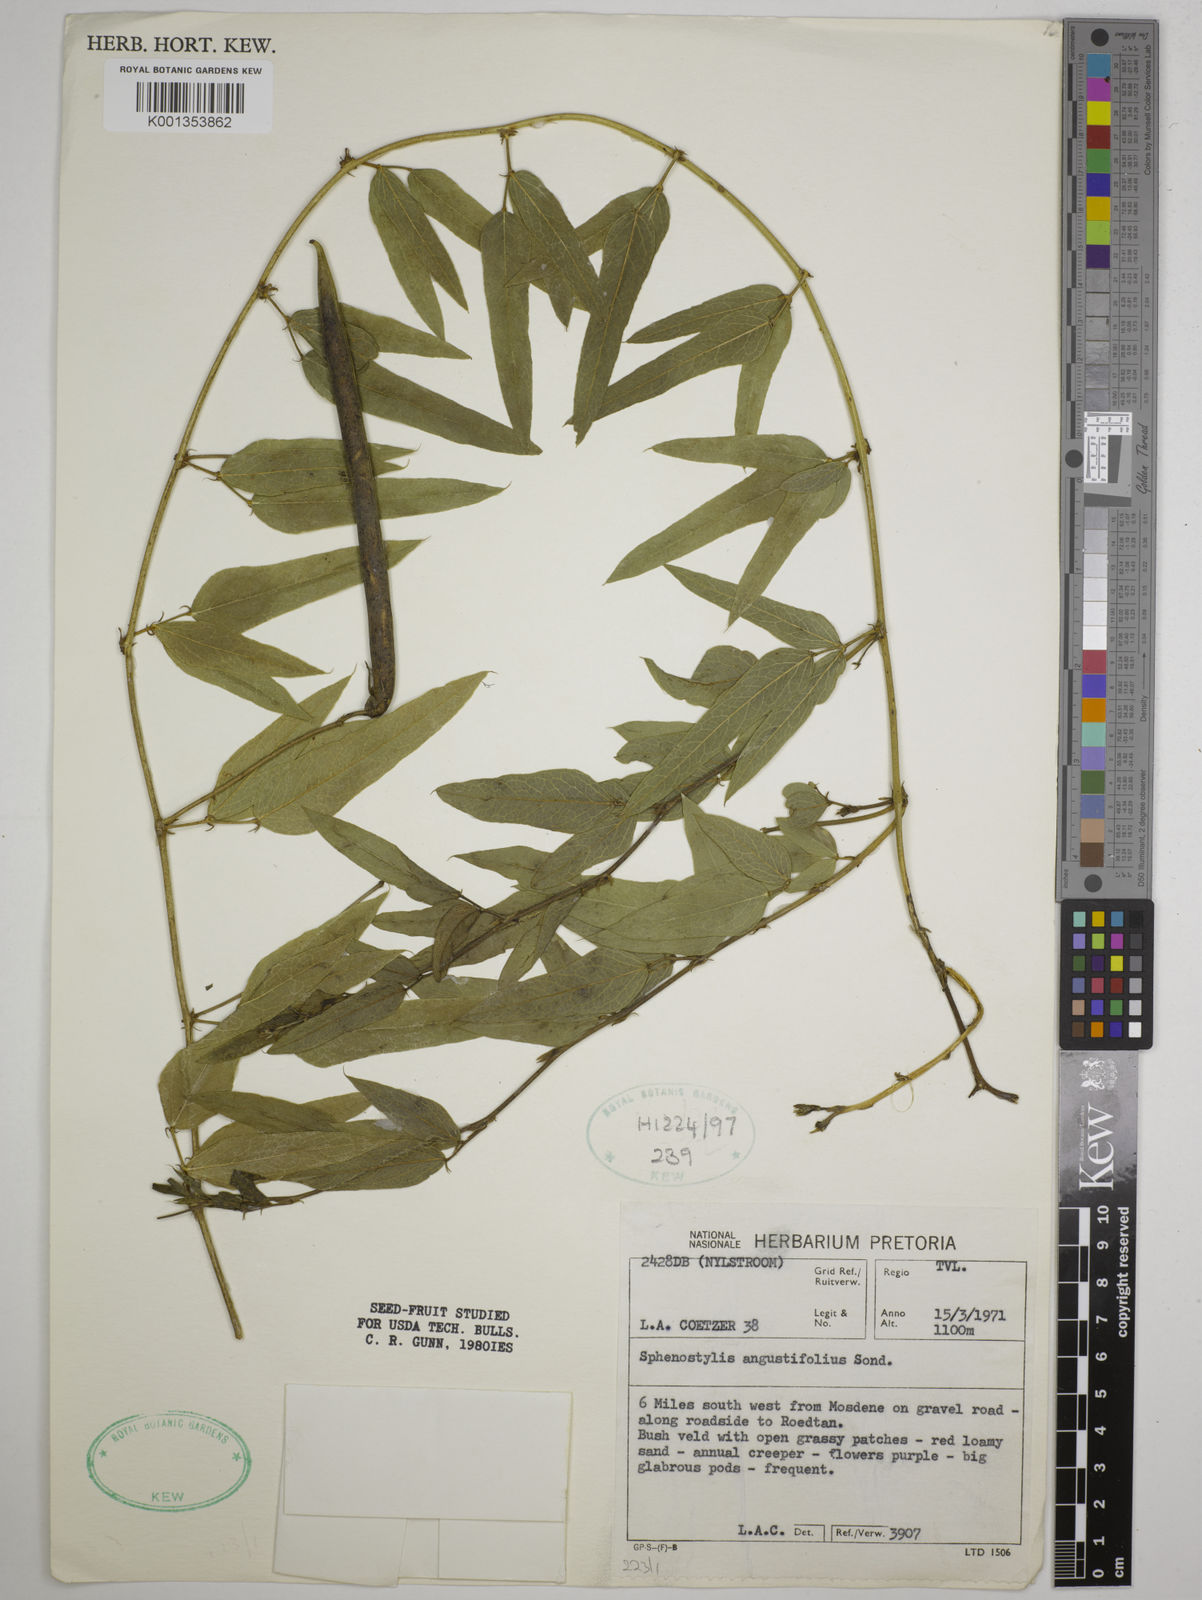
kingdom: Plantae
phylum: Tracheophyta
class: Magnoliopsida
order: Fabales
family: Fabaceae
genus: Sphenostylis
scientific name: Sphenostylis angustifolia
